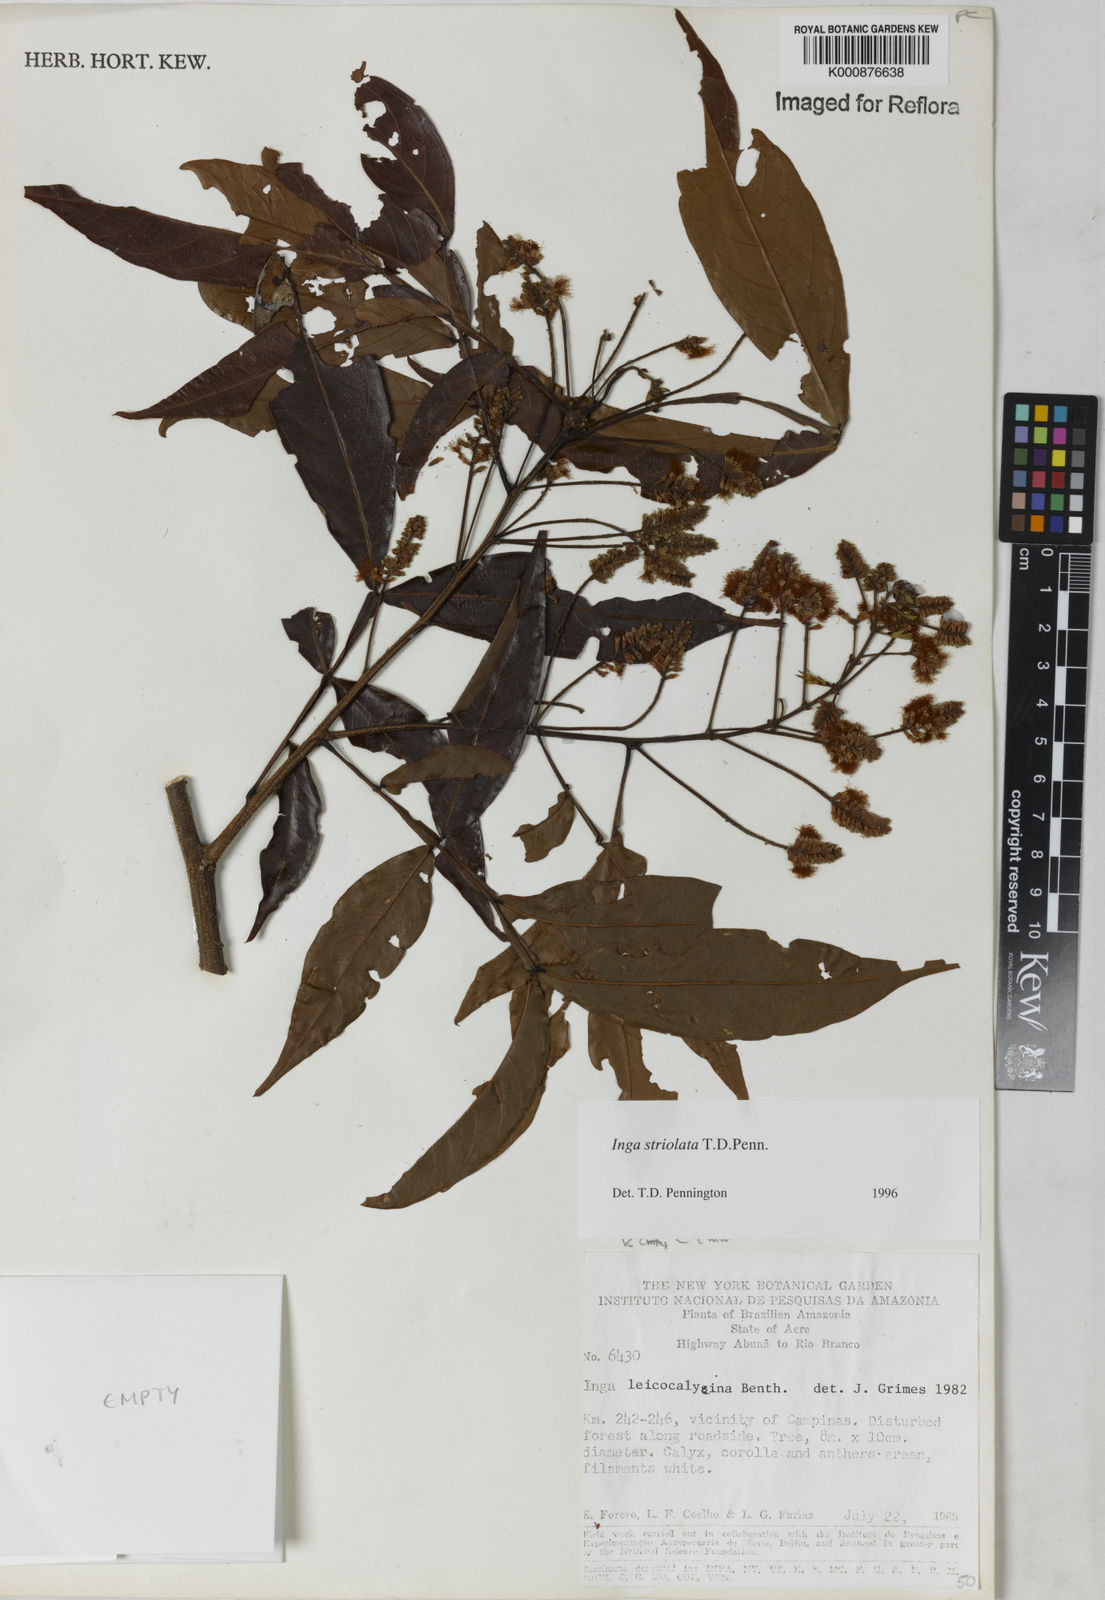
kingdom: Plantae
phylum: Tracheophyta
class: Magnoliopsida
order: Fabales
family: Fabaceae
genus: Inga
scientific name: Inga striolata
